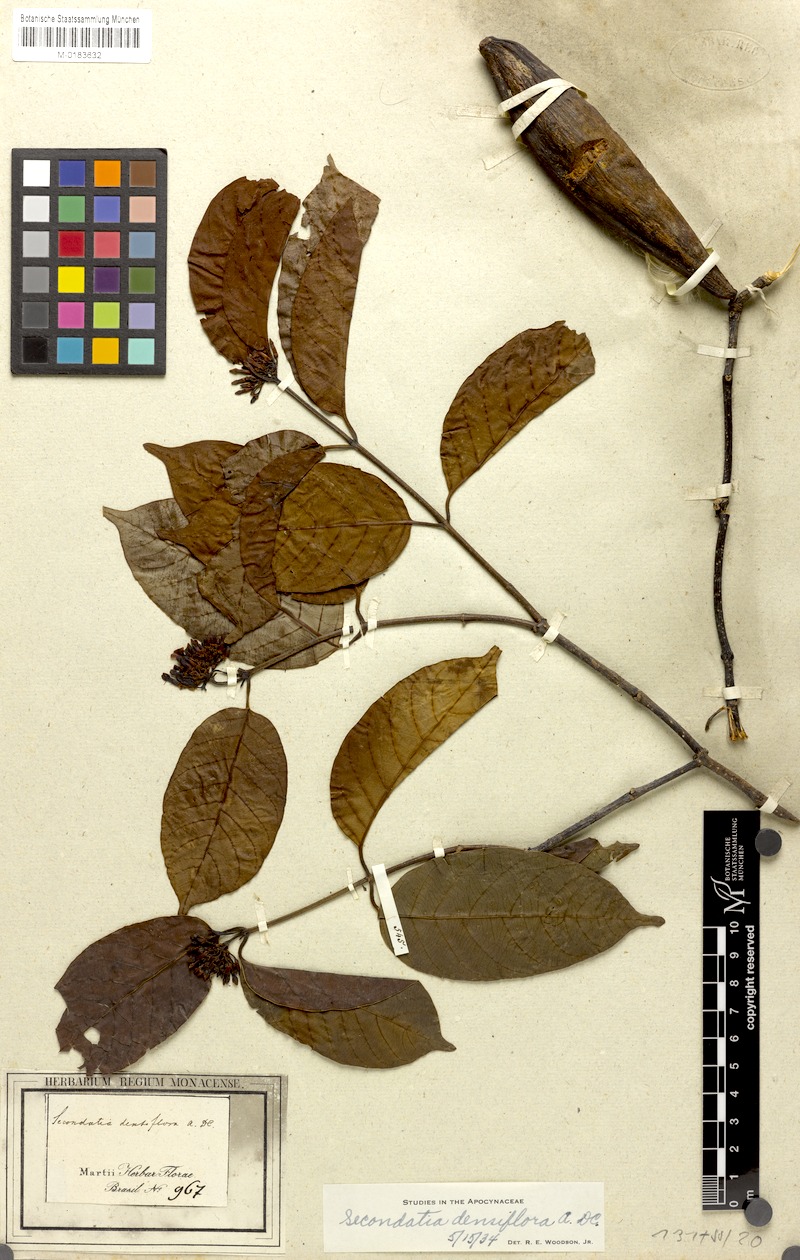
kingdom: Plantae
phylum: Tracheophyta
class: Magnoliopsida
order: Gentianales
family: Apocynaceae
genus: Secondatia
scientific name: Secondatia densiflora
